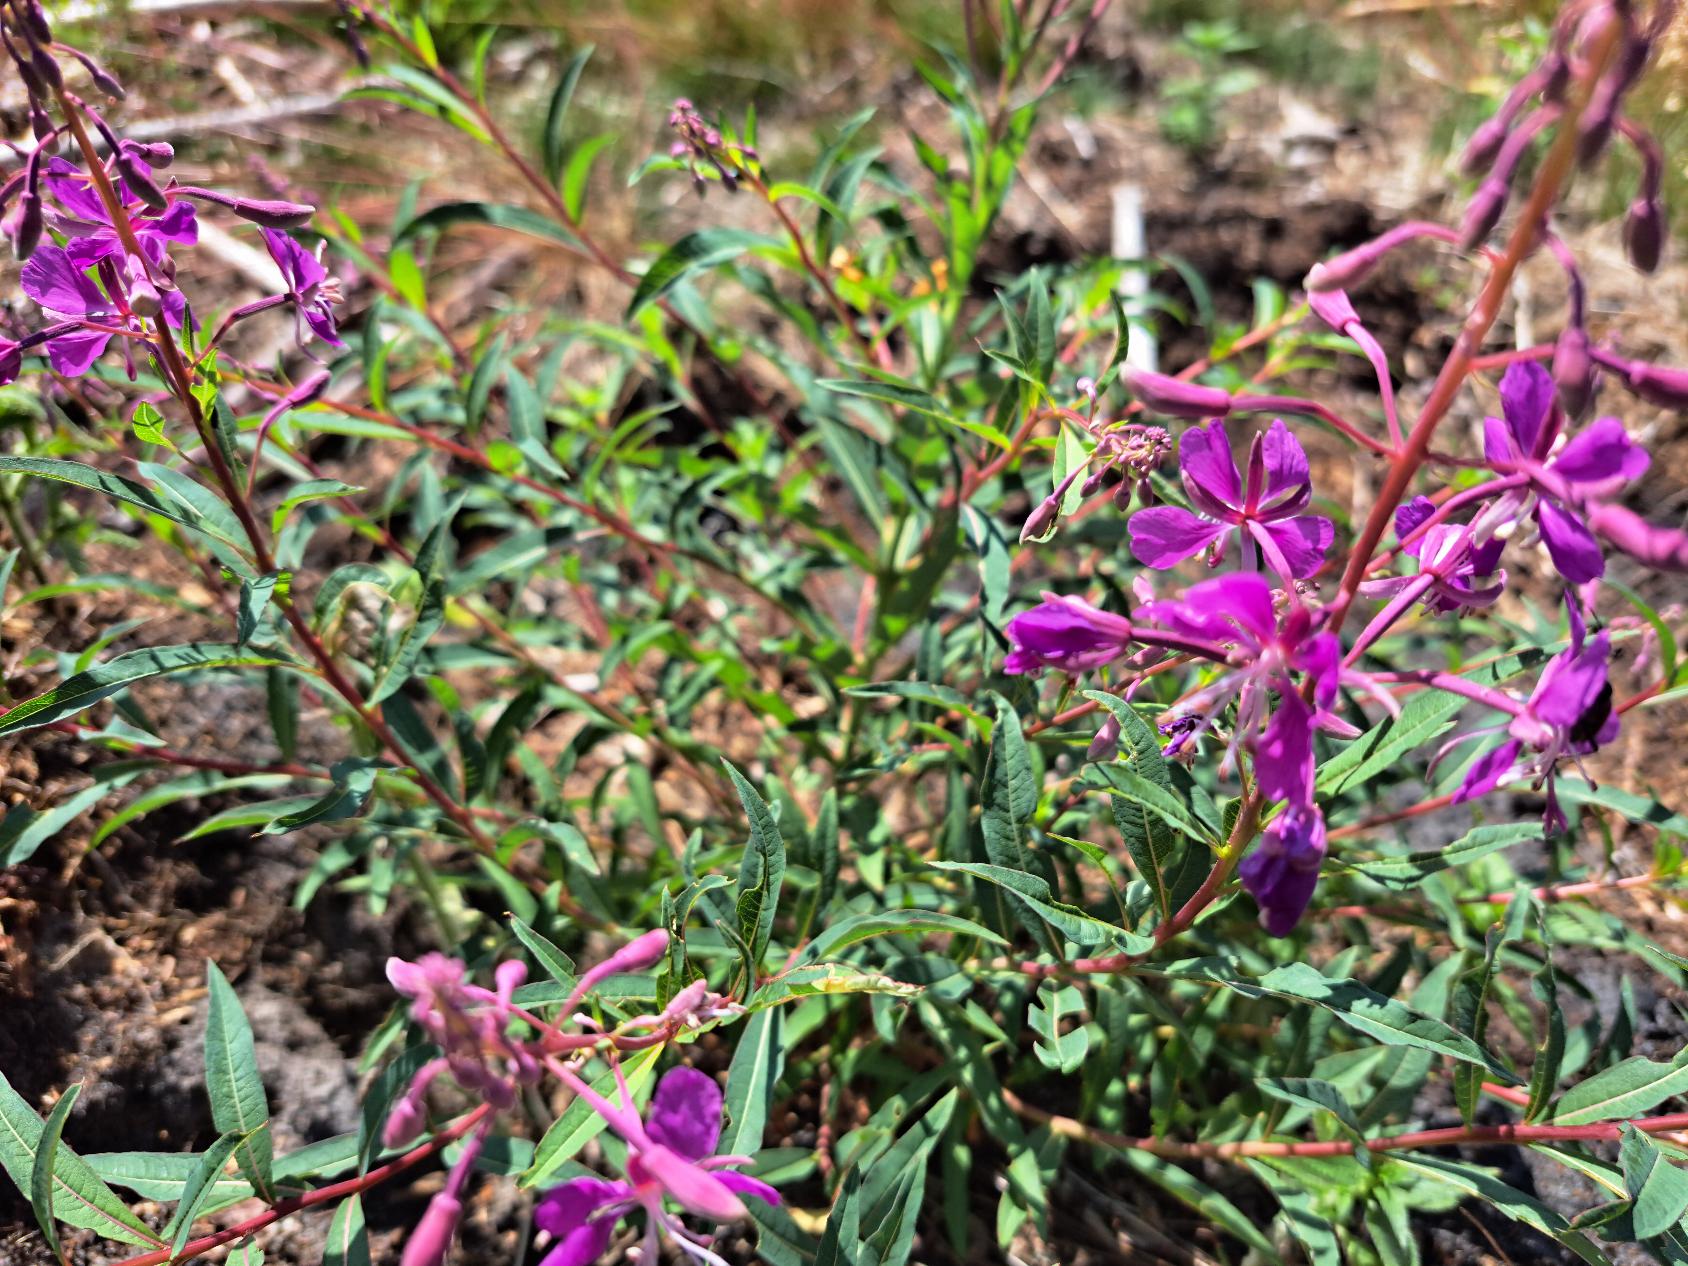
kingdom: Plantae
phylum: Tracheophyta
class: Magnoliopsida
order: Myrtales
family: Onagraceae
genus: Chamaenerion
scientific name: Chamaenerion angustifolium
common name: Gederams
